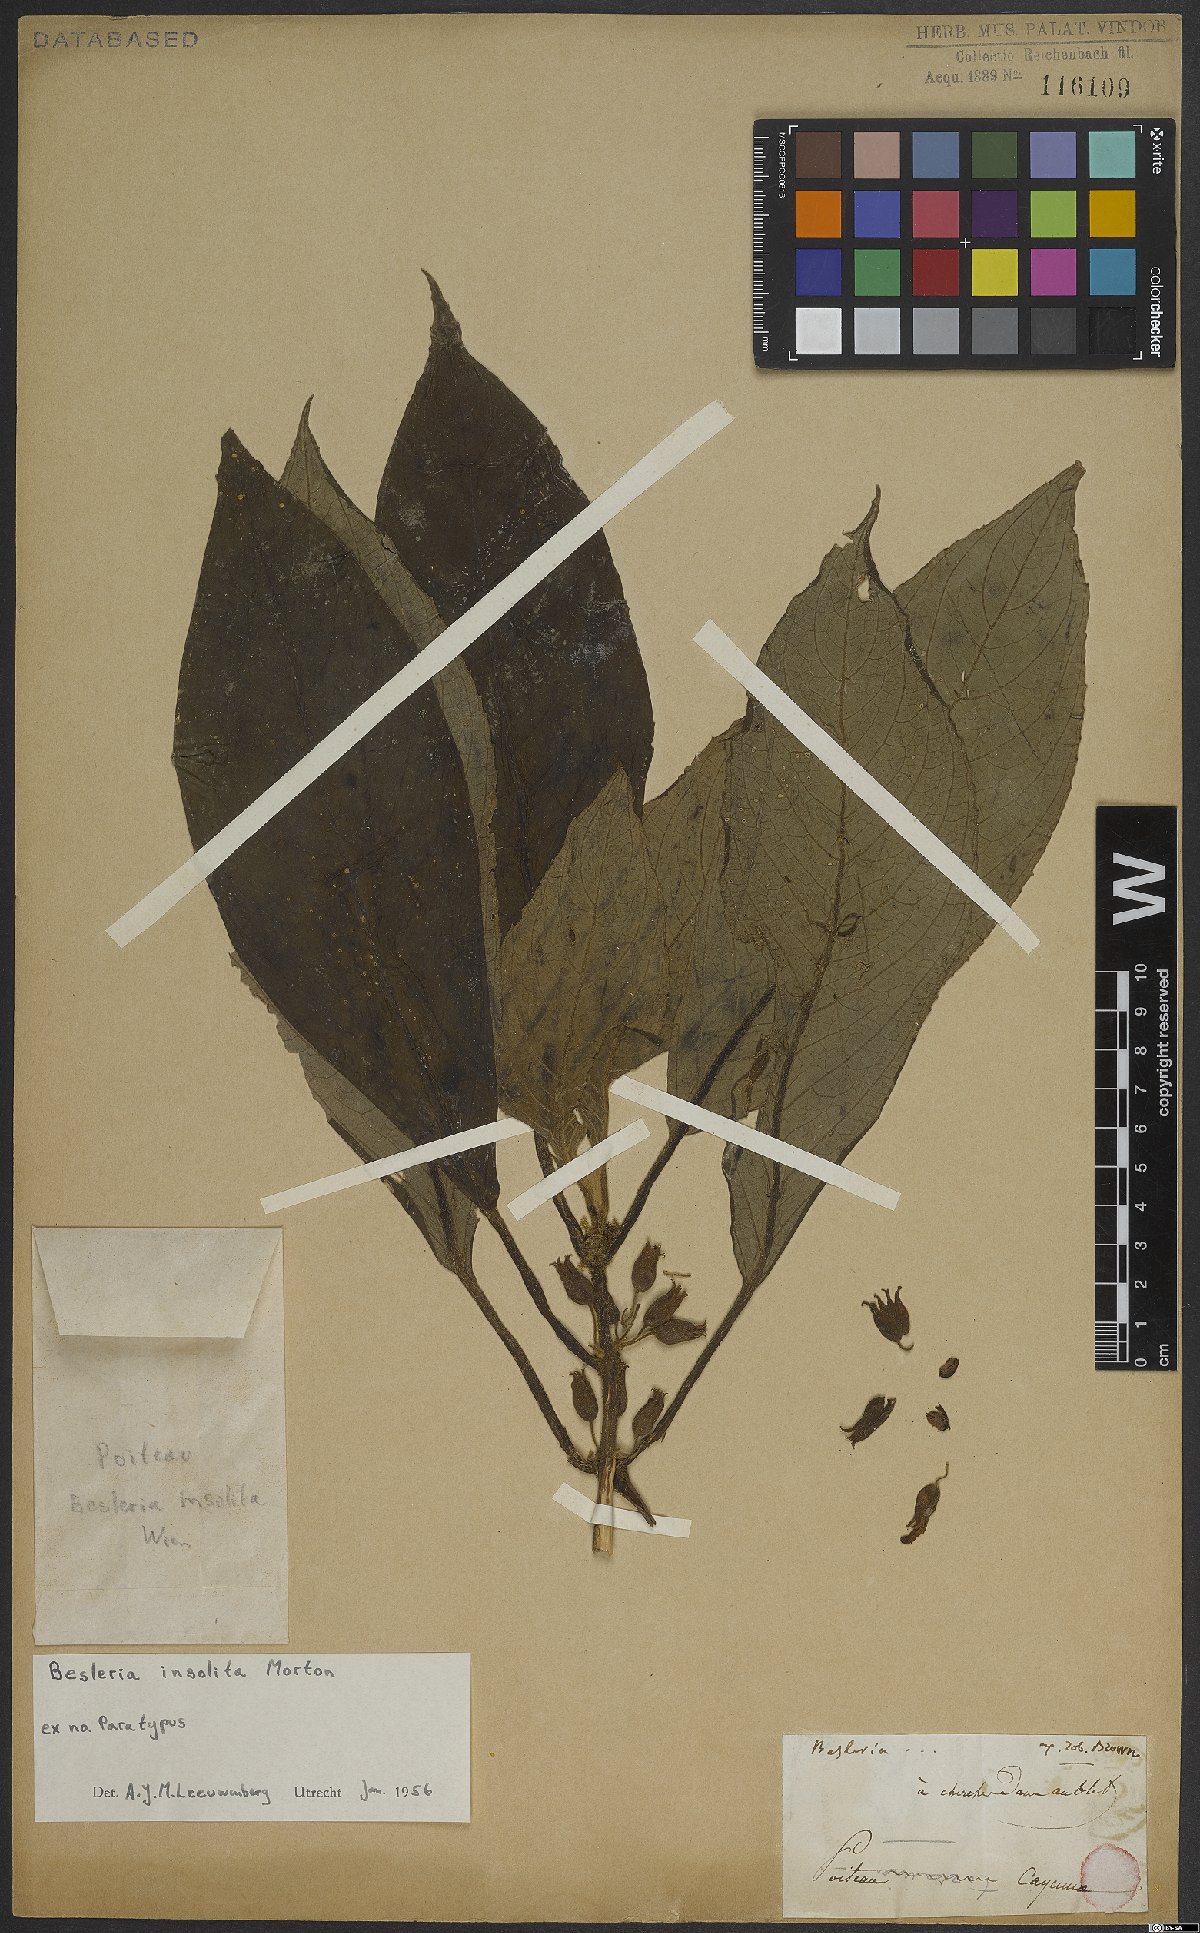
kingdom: Plantae
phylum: Tracheophyta
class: Magnoliopsida
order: Lamiales
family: Gesneriaceae
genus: Besleria
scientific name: Besleria insolita
